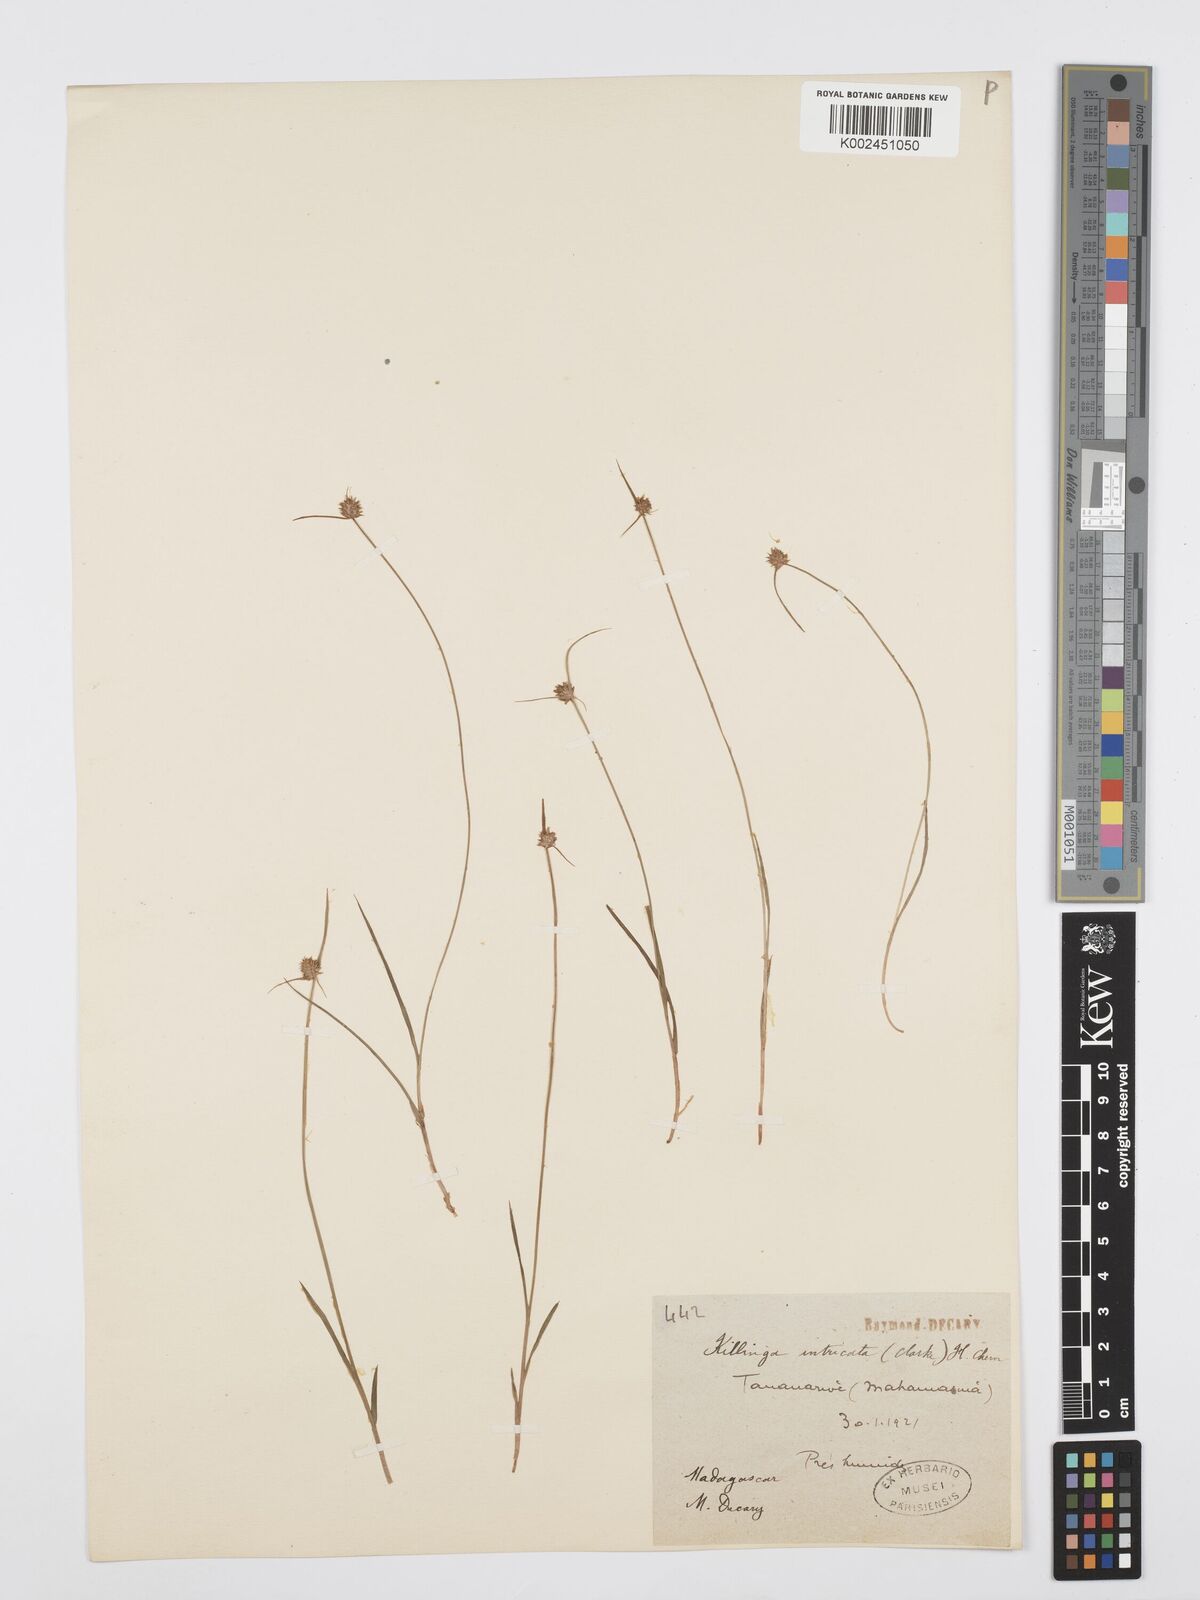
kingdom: Plantae
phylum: Tracheophyta
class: Liliopsida
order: Poales
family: Cyperaceae
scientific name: Cyperaceae
